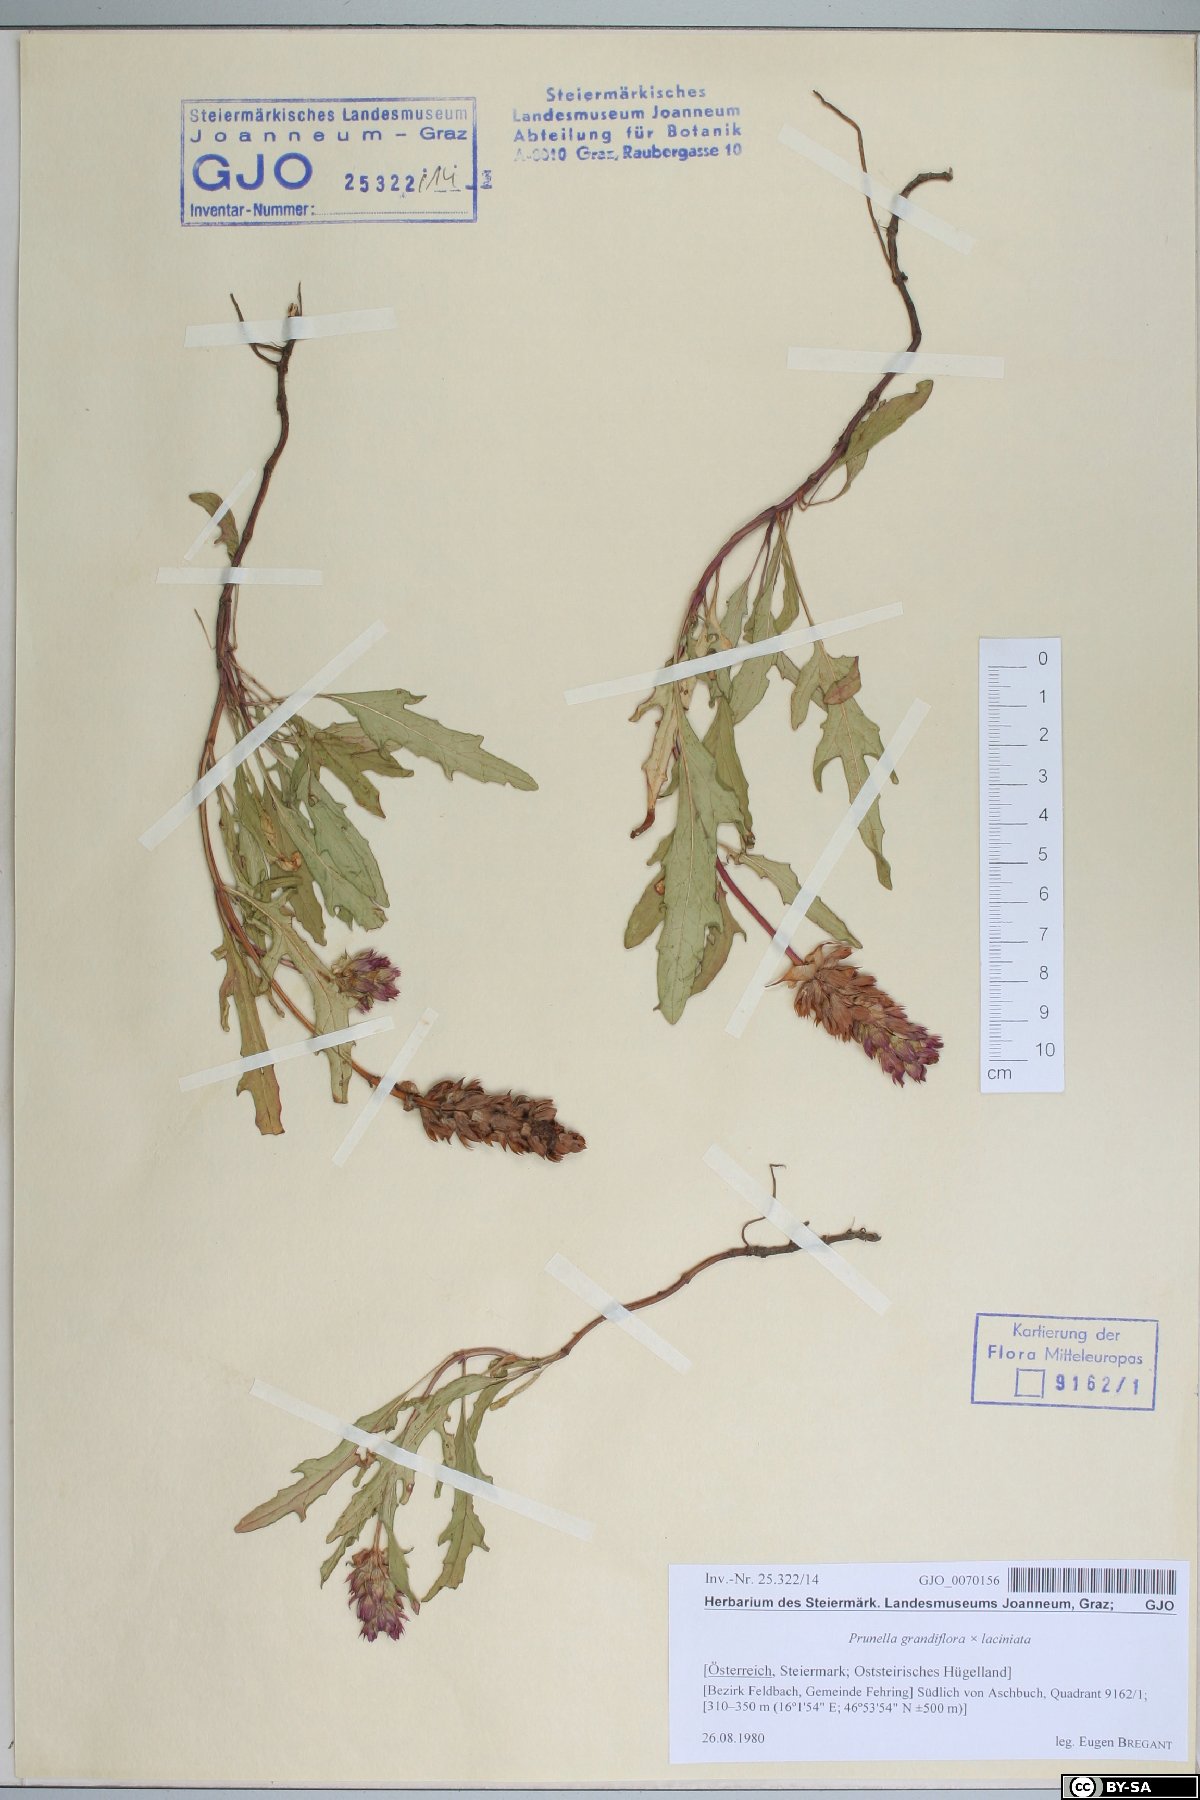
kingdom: Plantae
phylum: Tracheophyta
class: Magnoliopsida
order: Lamiales
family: Lamiaceae
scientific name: Lamiaceae
